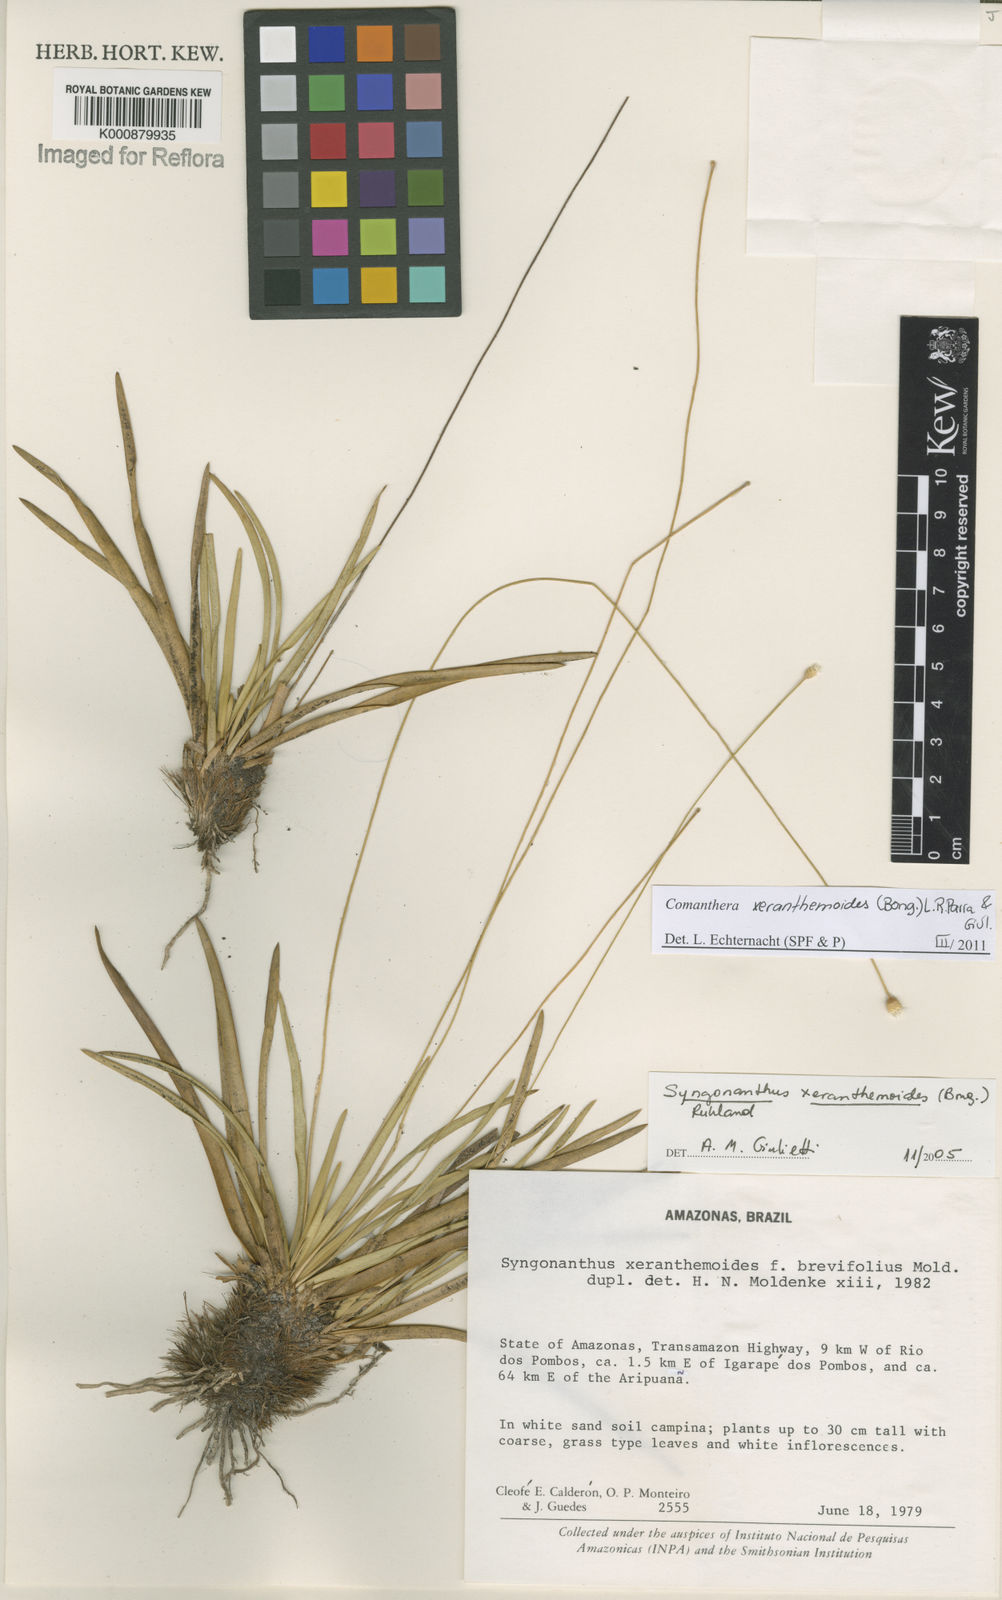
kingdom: Plantae
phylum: Tracheophyta
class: Liliopsida
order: Poales
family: Eriocaulaceae
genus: Comanthera
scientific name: Comanthera
